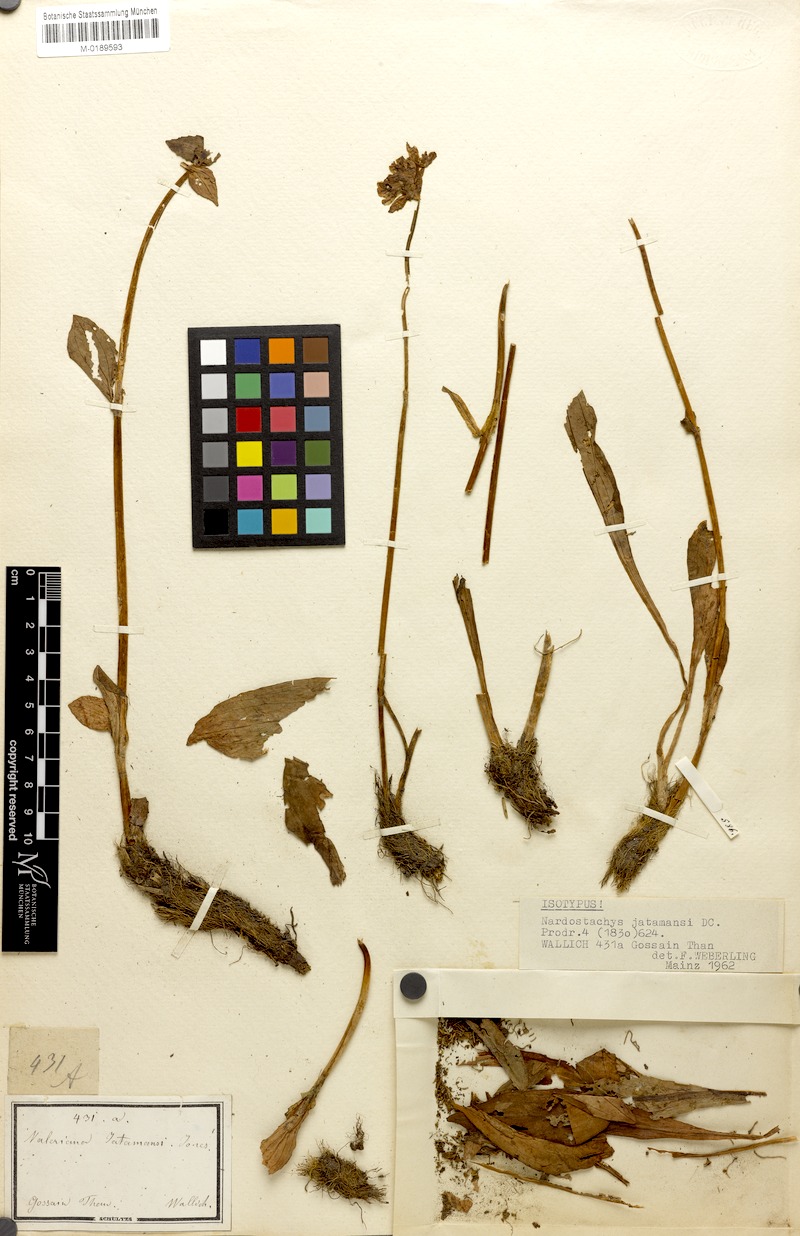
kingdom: Plantae
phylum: Tracheophyta
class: Magnoliopsida
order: Dipsacales
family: Caprifoliaceae
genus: Nardostachys
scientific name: Nardostachys jatamansi
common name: Indian nard
